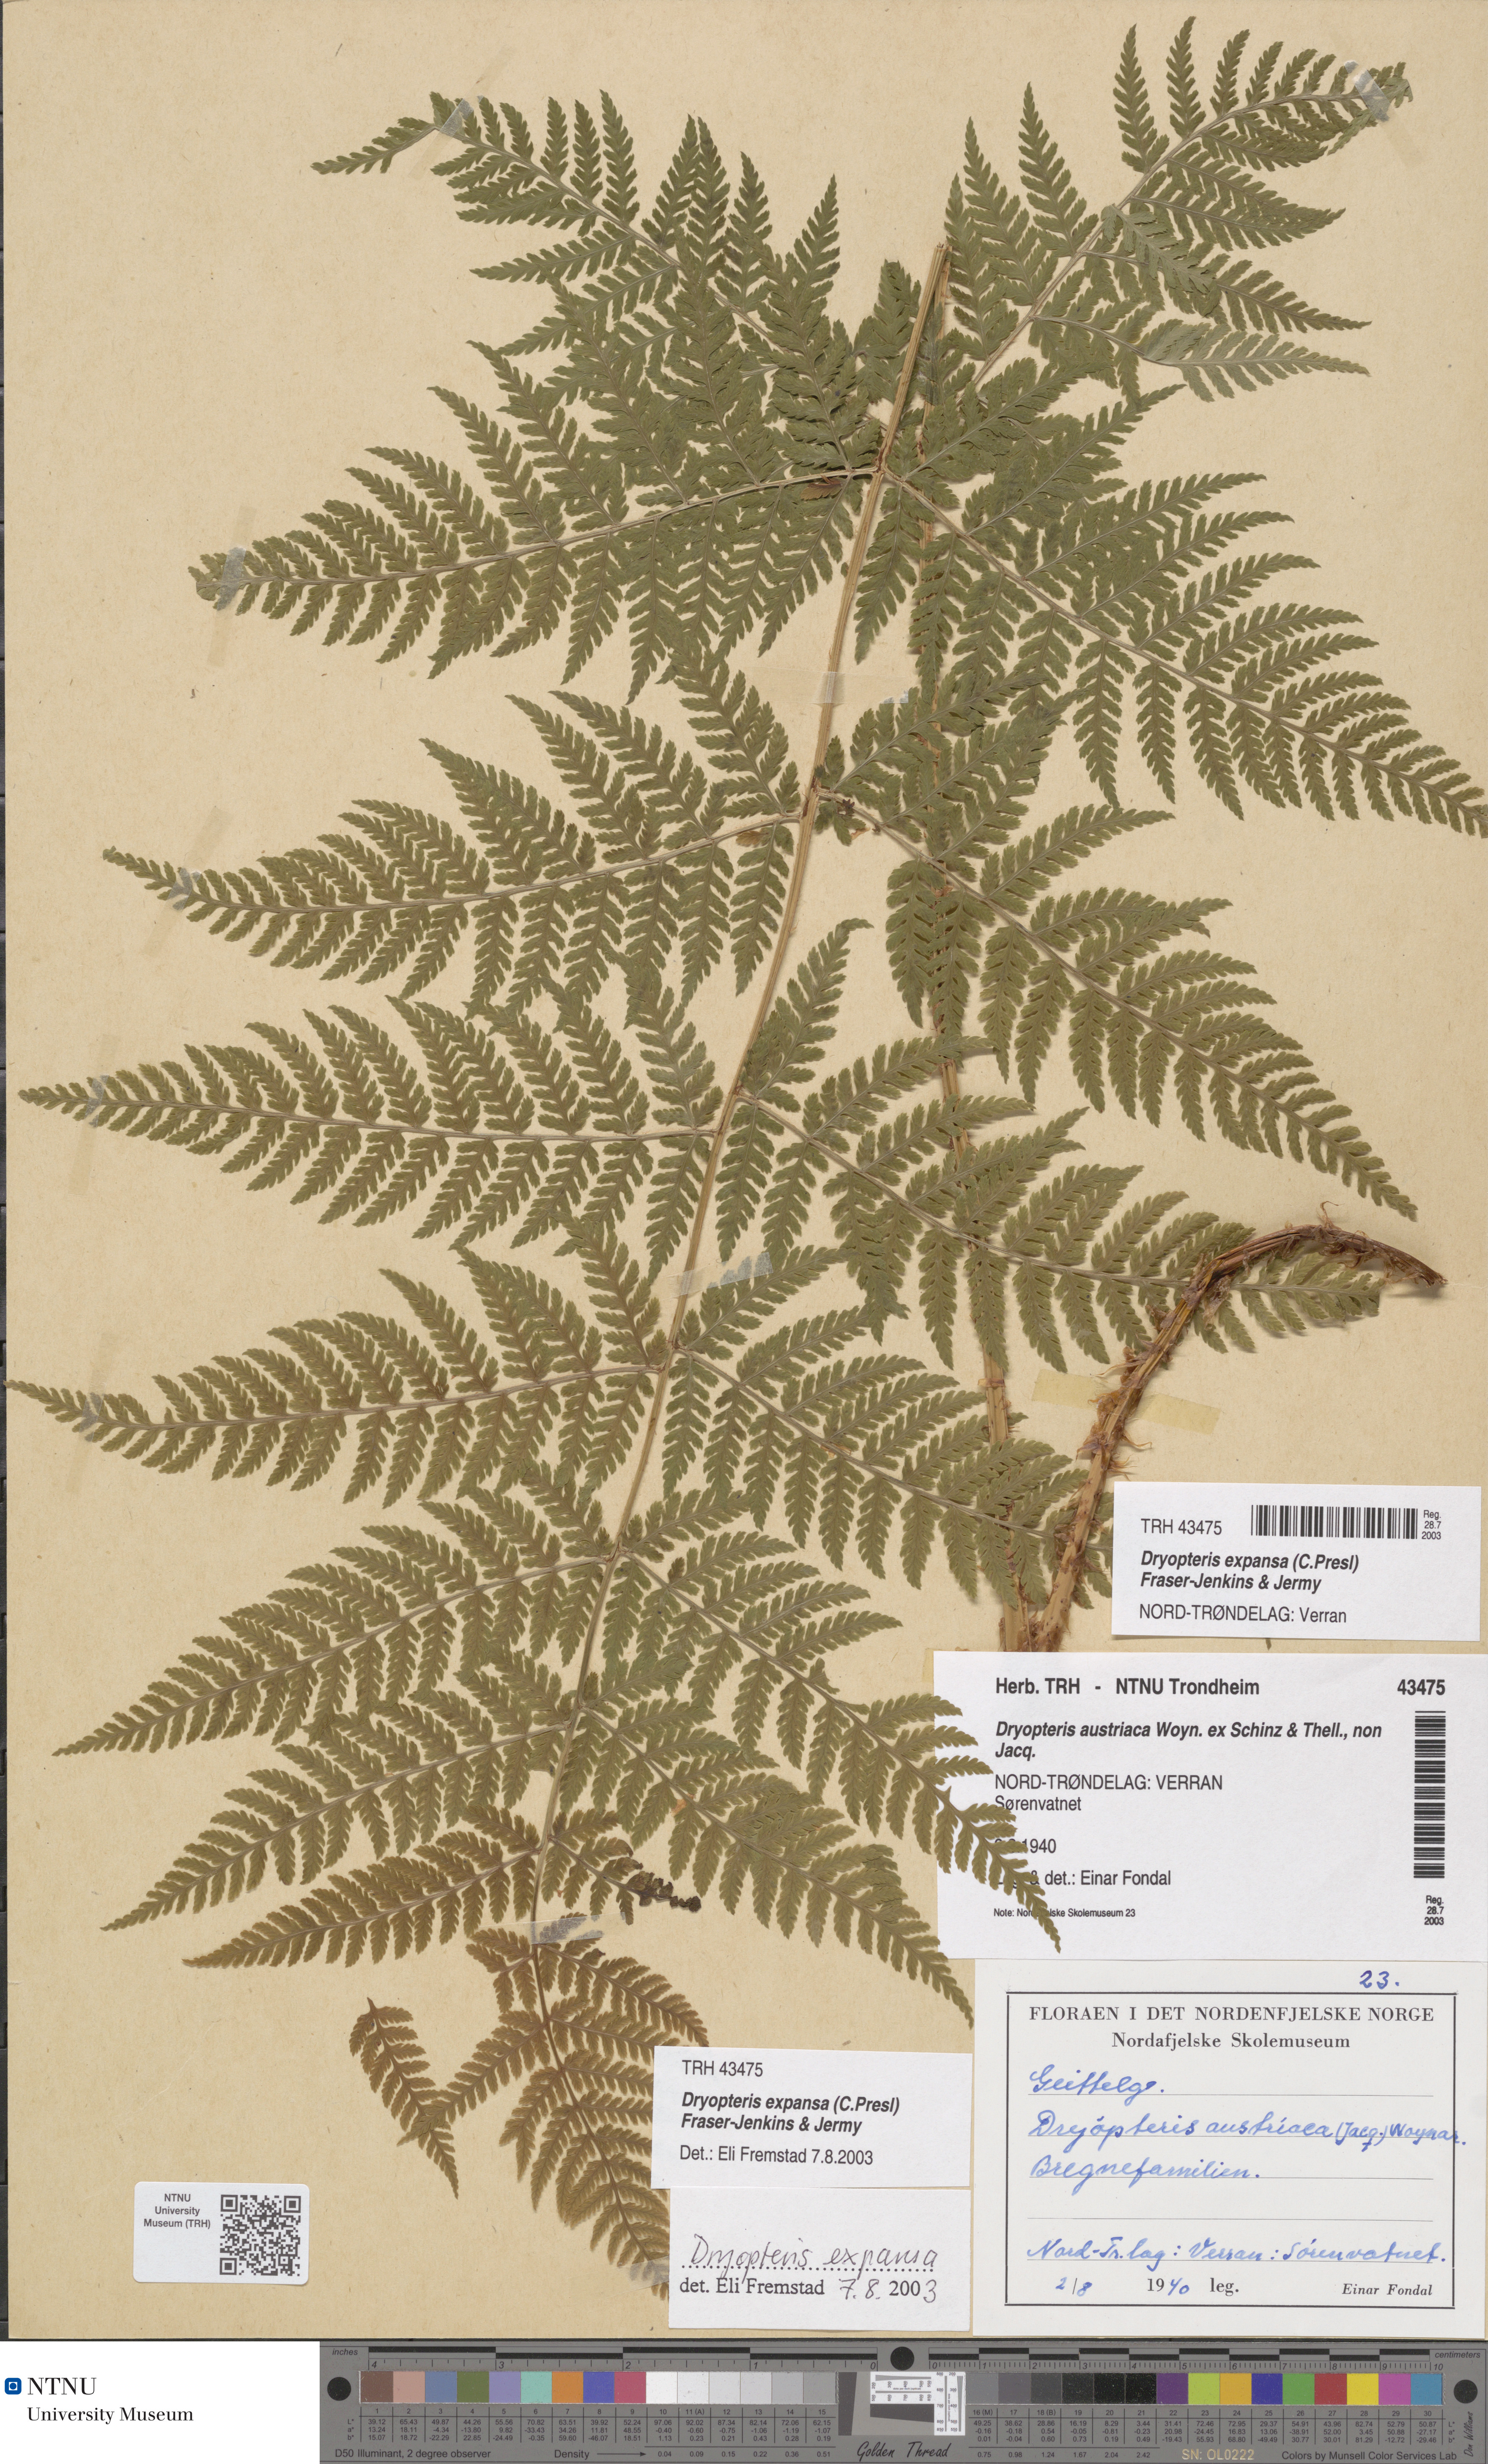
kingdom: Plantae
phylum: Tracheophyta
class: Polypodiopsida
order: Polypodiales
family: Dryopteridaceae
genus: Dryopteris
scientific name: Dryopteris expansa
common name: Northern buckler fern
